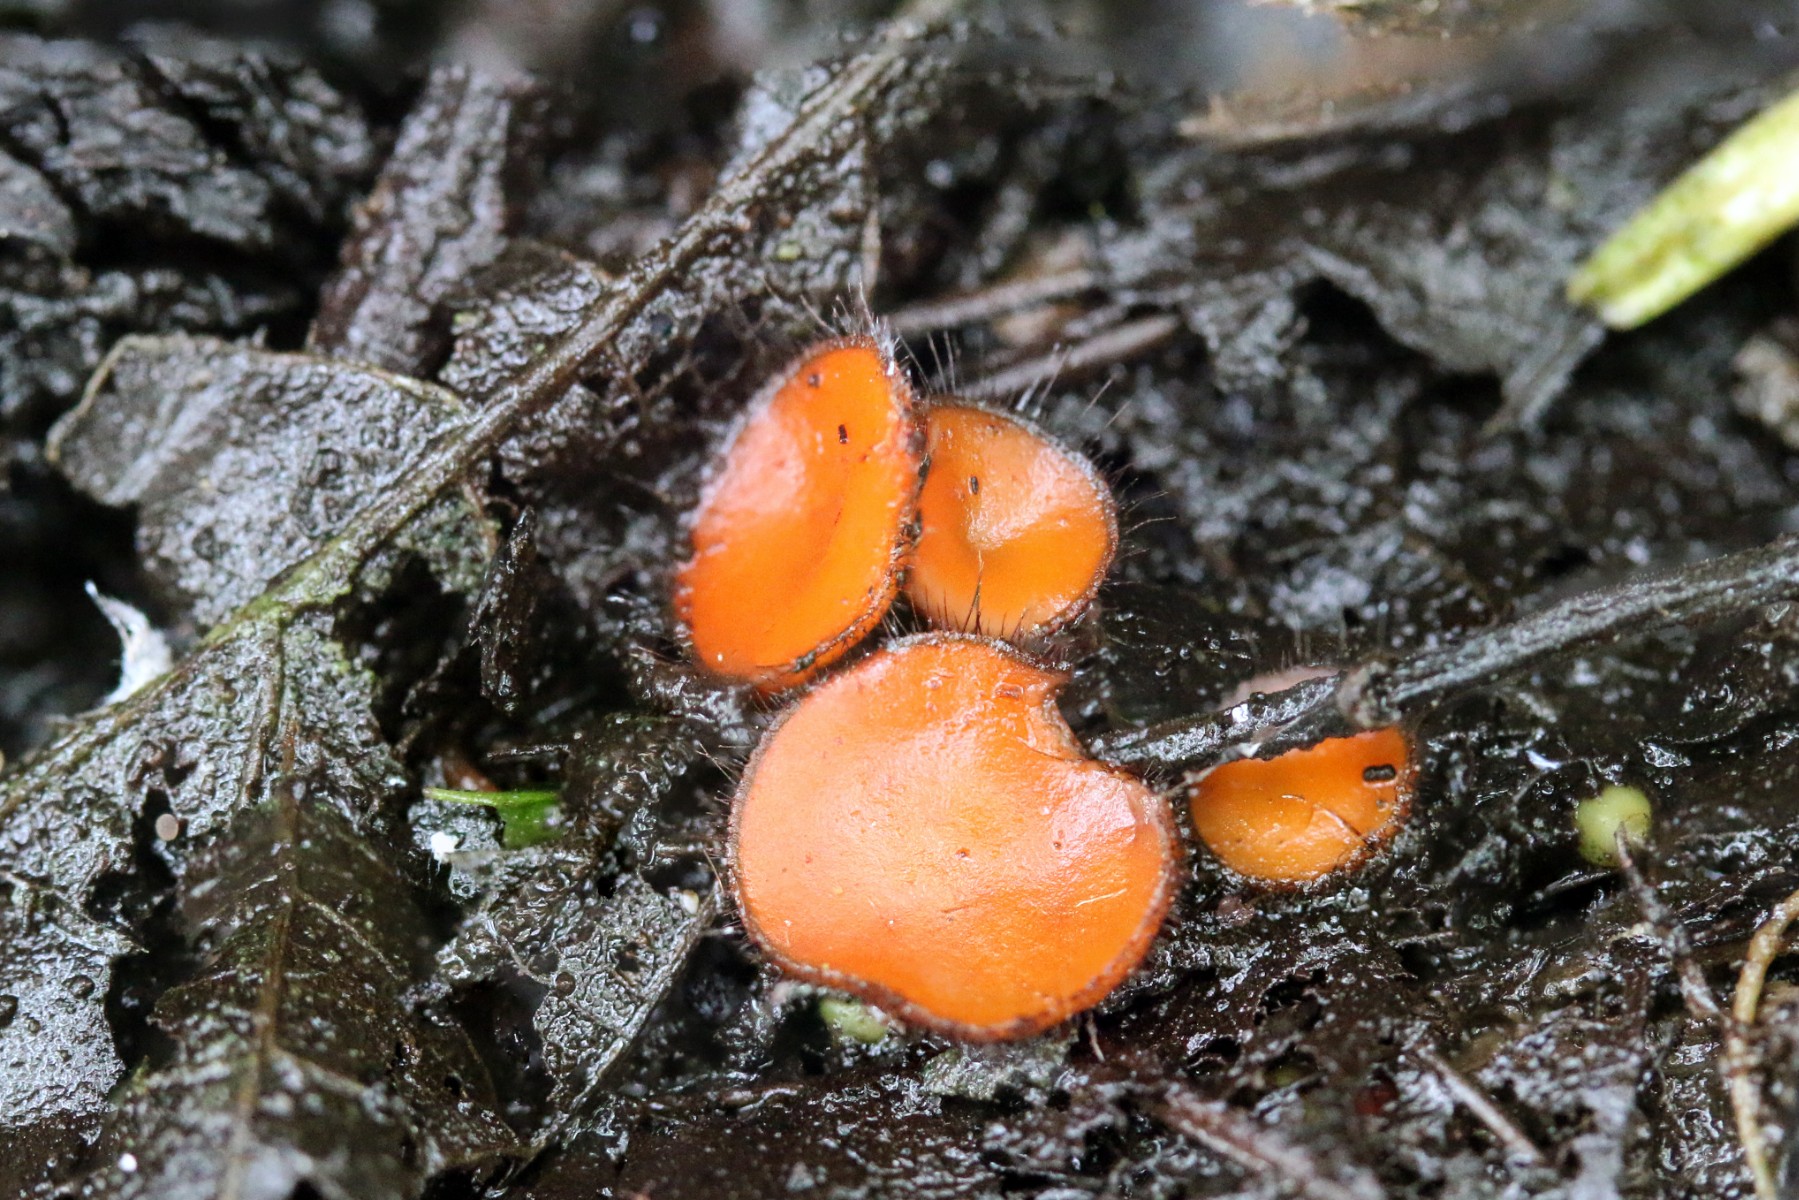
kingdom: Fungi
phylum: Ascomycota
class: Pezizomycetes
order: Pezizales
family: Pyronemataceae
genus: Scutellinia
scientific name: Scutellinia scutellata
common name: frynset skjoldbæger
